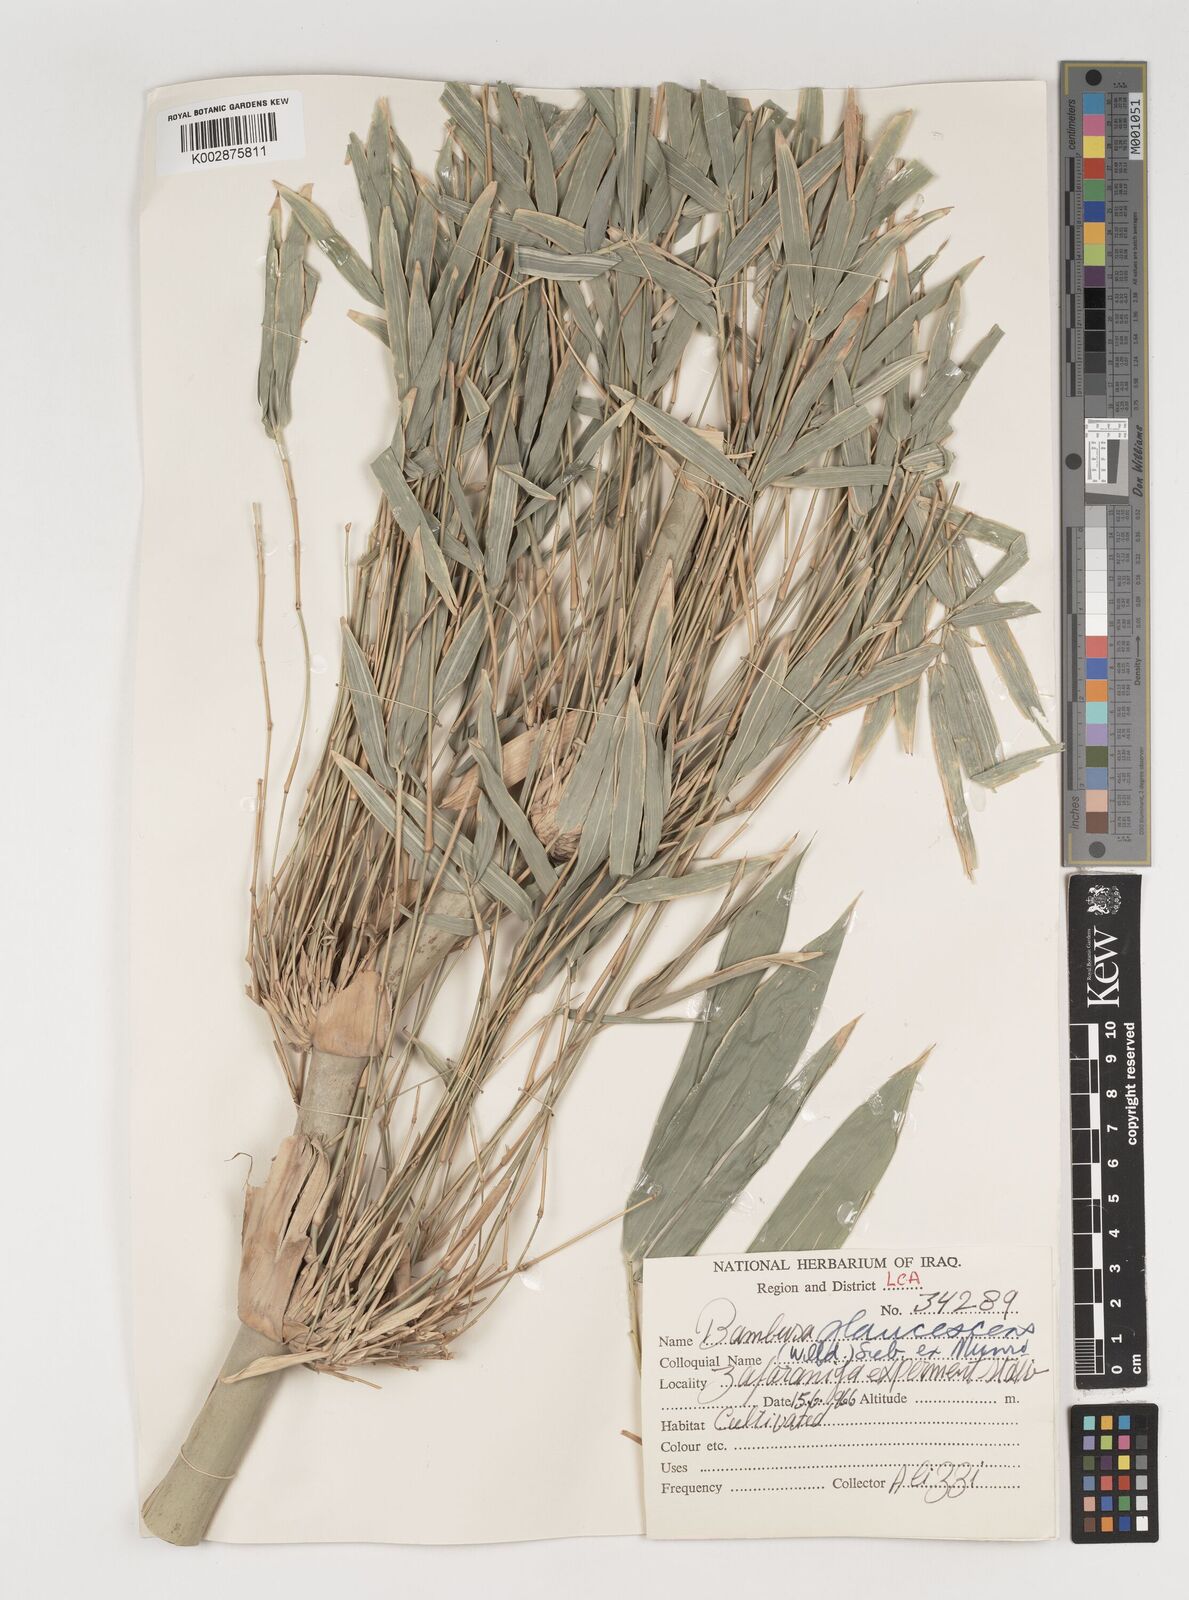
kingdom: Plantae
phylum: Tracheophyta
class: Liliopsida
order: Poales
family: Poaceae
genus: Bambusa
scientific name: Bambusa multiplex
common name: Hedge bamboo
